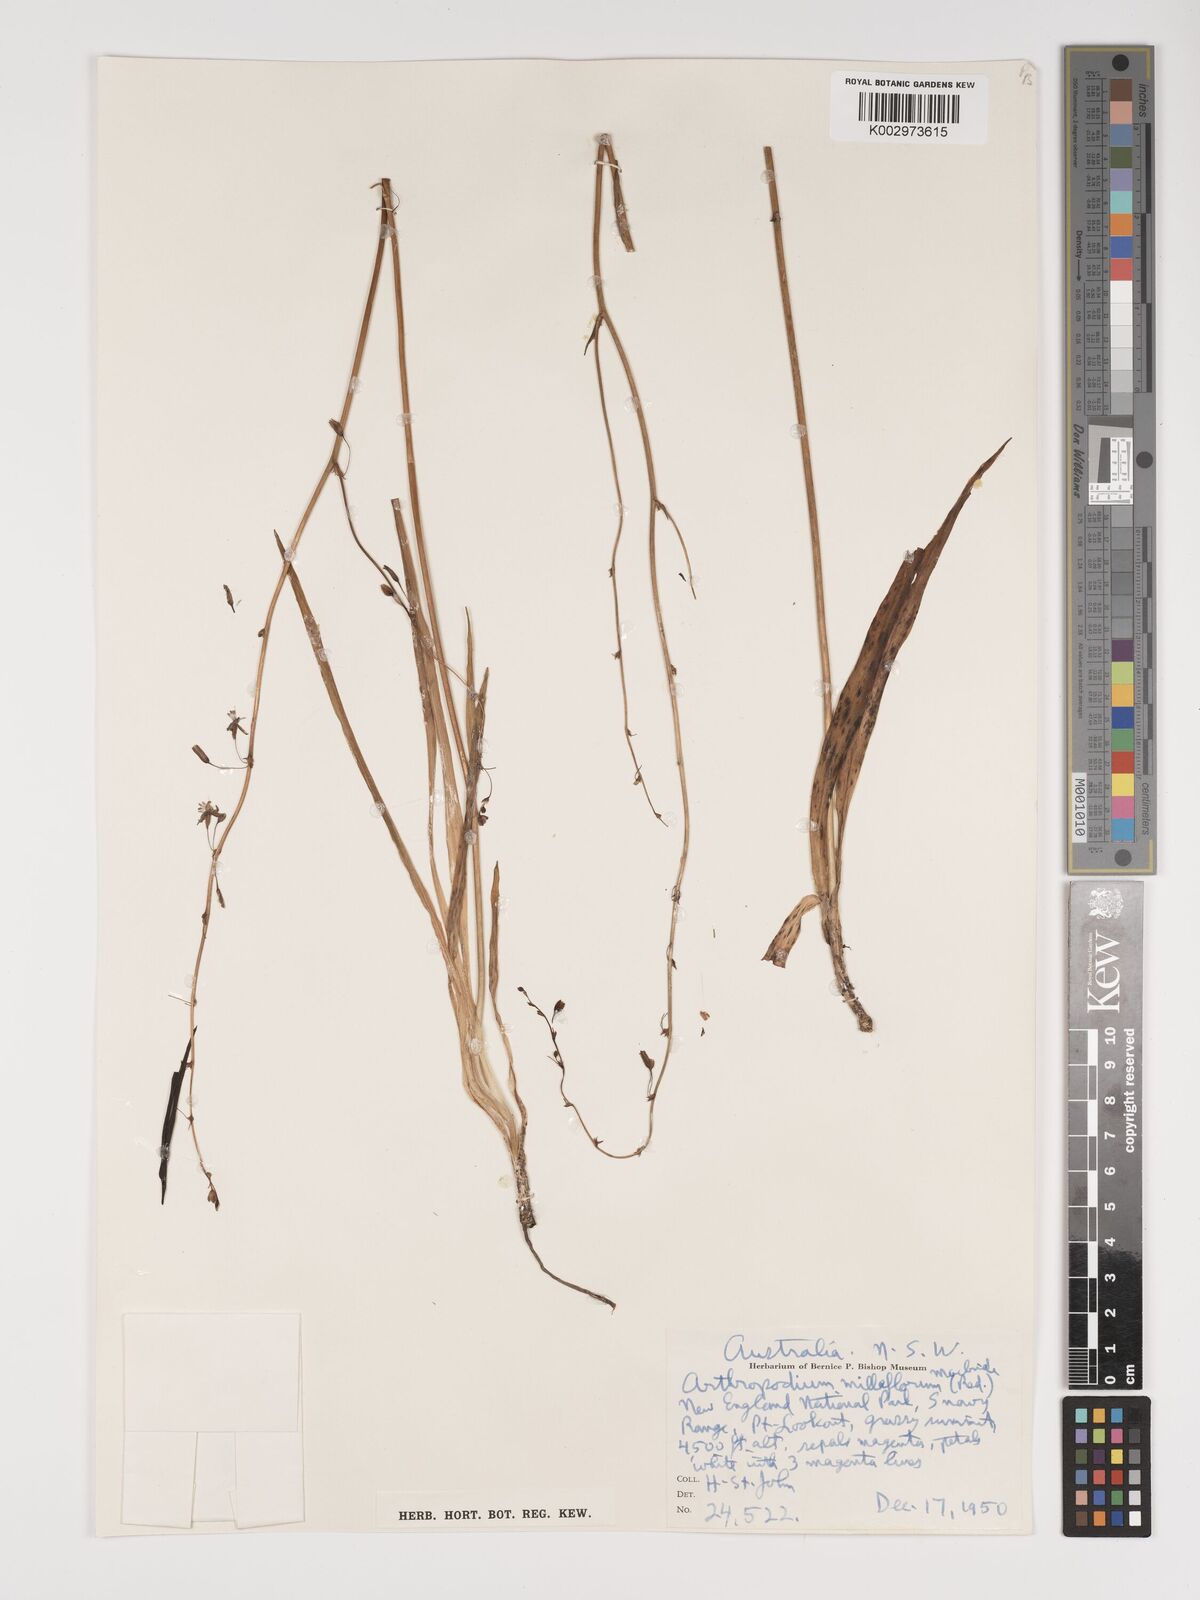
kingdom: Plantae
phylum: Tracheophyta
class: Liliopsida
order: Asparagales
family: Asparagaceae
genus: Arthropodium
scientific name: Arthropodium milleflorum
